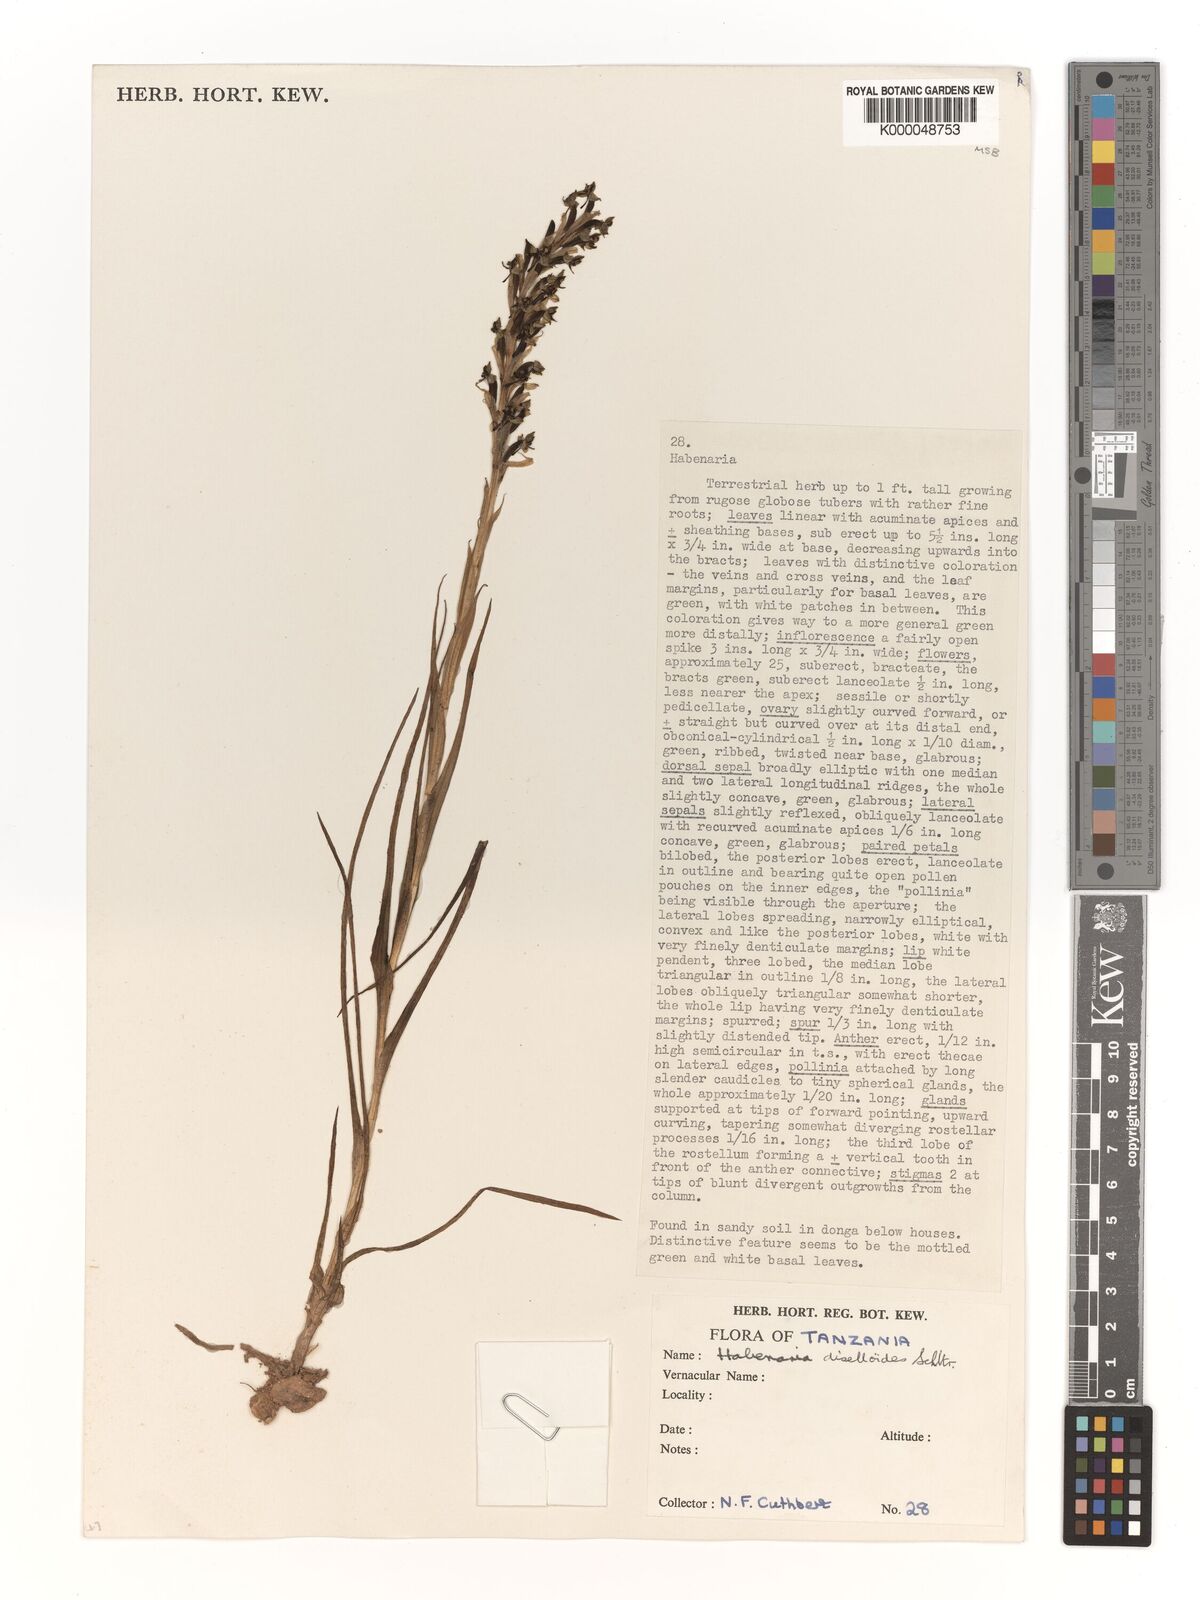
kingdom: Plantae
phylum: Tracheophyta
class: Liliopsida
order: Asparagales
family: Orchidaceae
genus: Habenaria
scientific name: Habenaria diselloides
